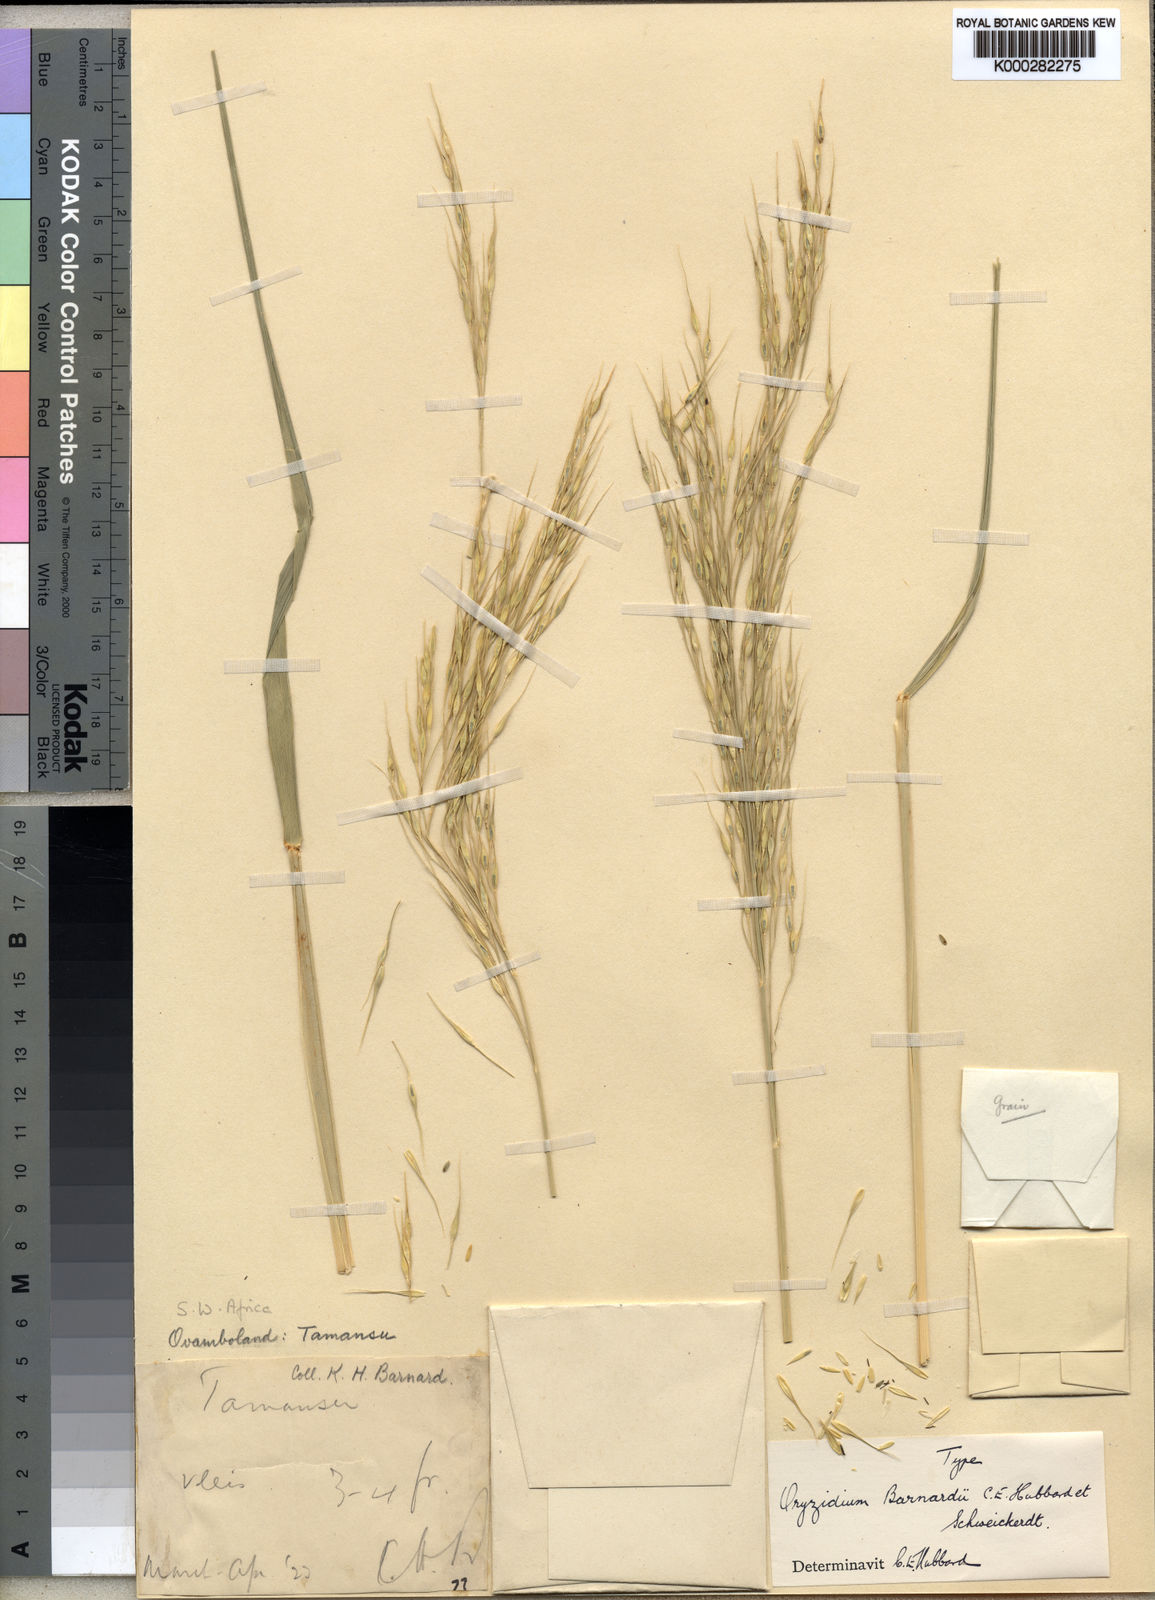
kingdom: Plantae
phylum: Tracheophyta
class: Liliopsida
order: Poales
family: Poaceae
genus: Oryzidium
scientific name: Oryzidium barnardii
